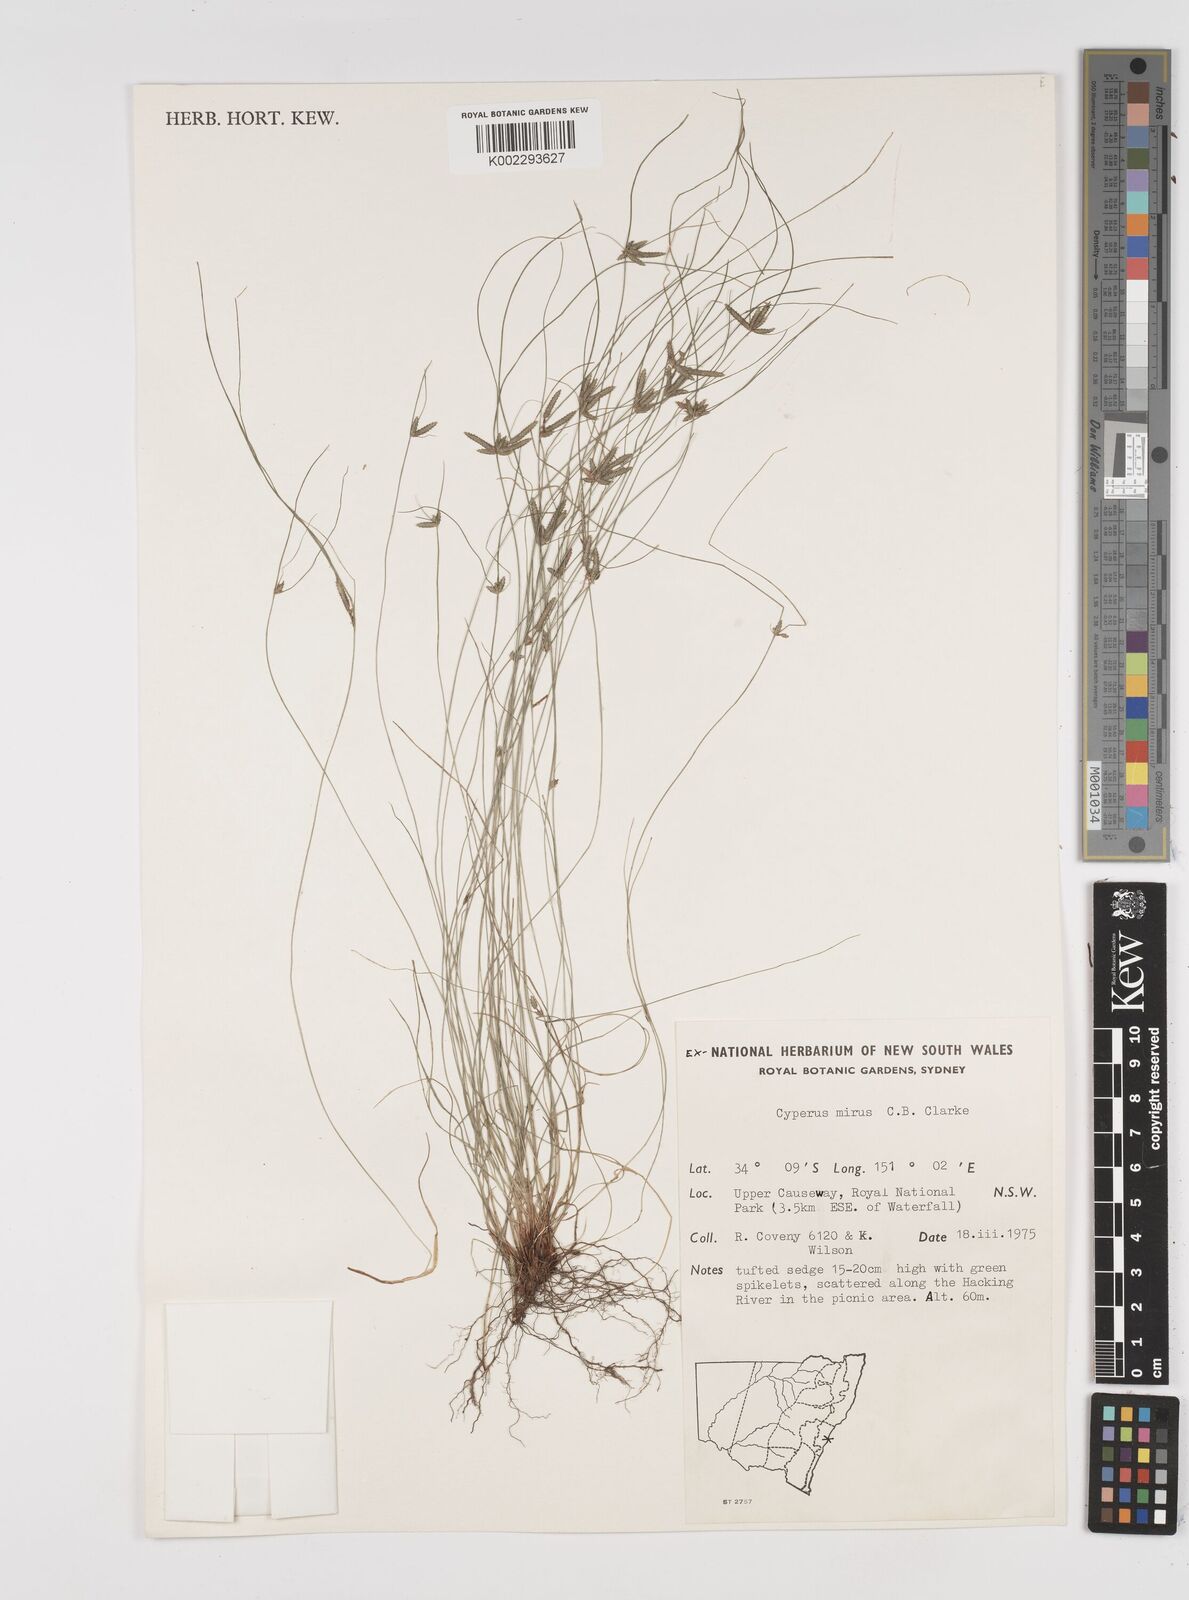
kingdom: Plantae
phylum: Tracheophyta
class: Liliopsida
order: Poales
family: Cyperaceae
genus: Cyperus
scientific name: Cyperus mirus
